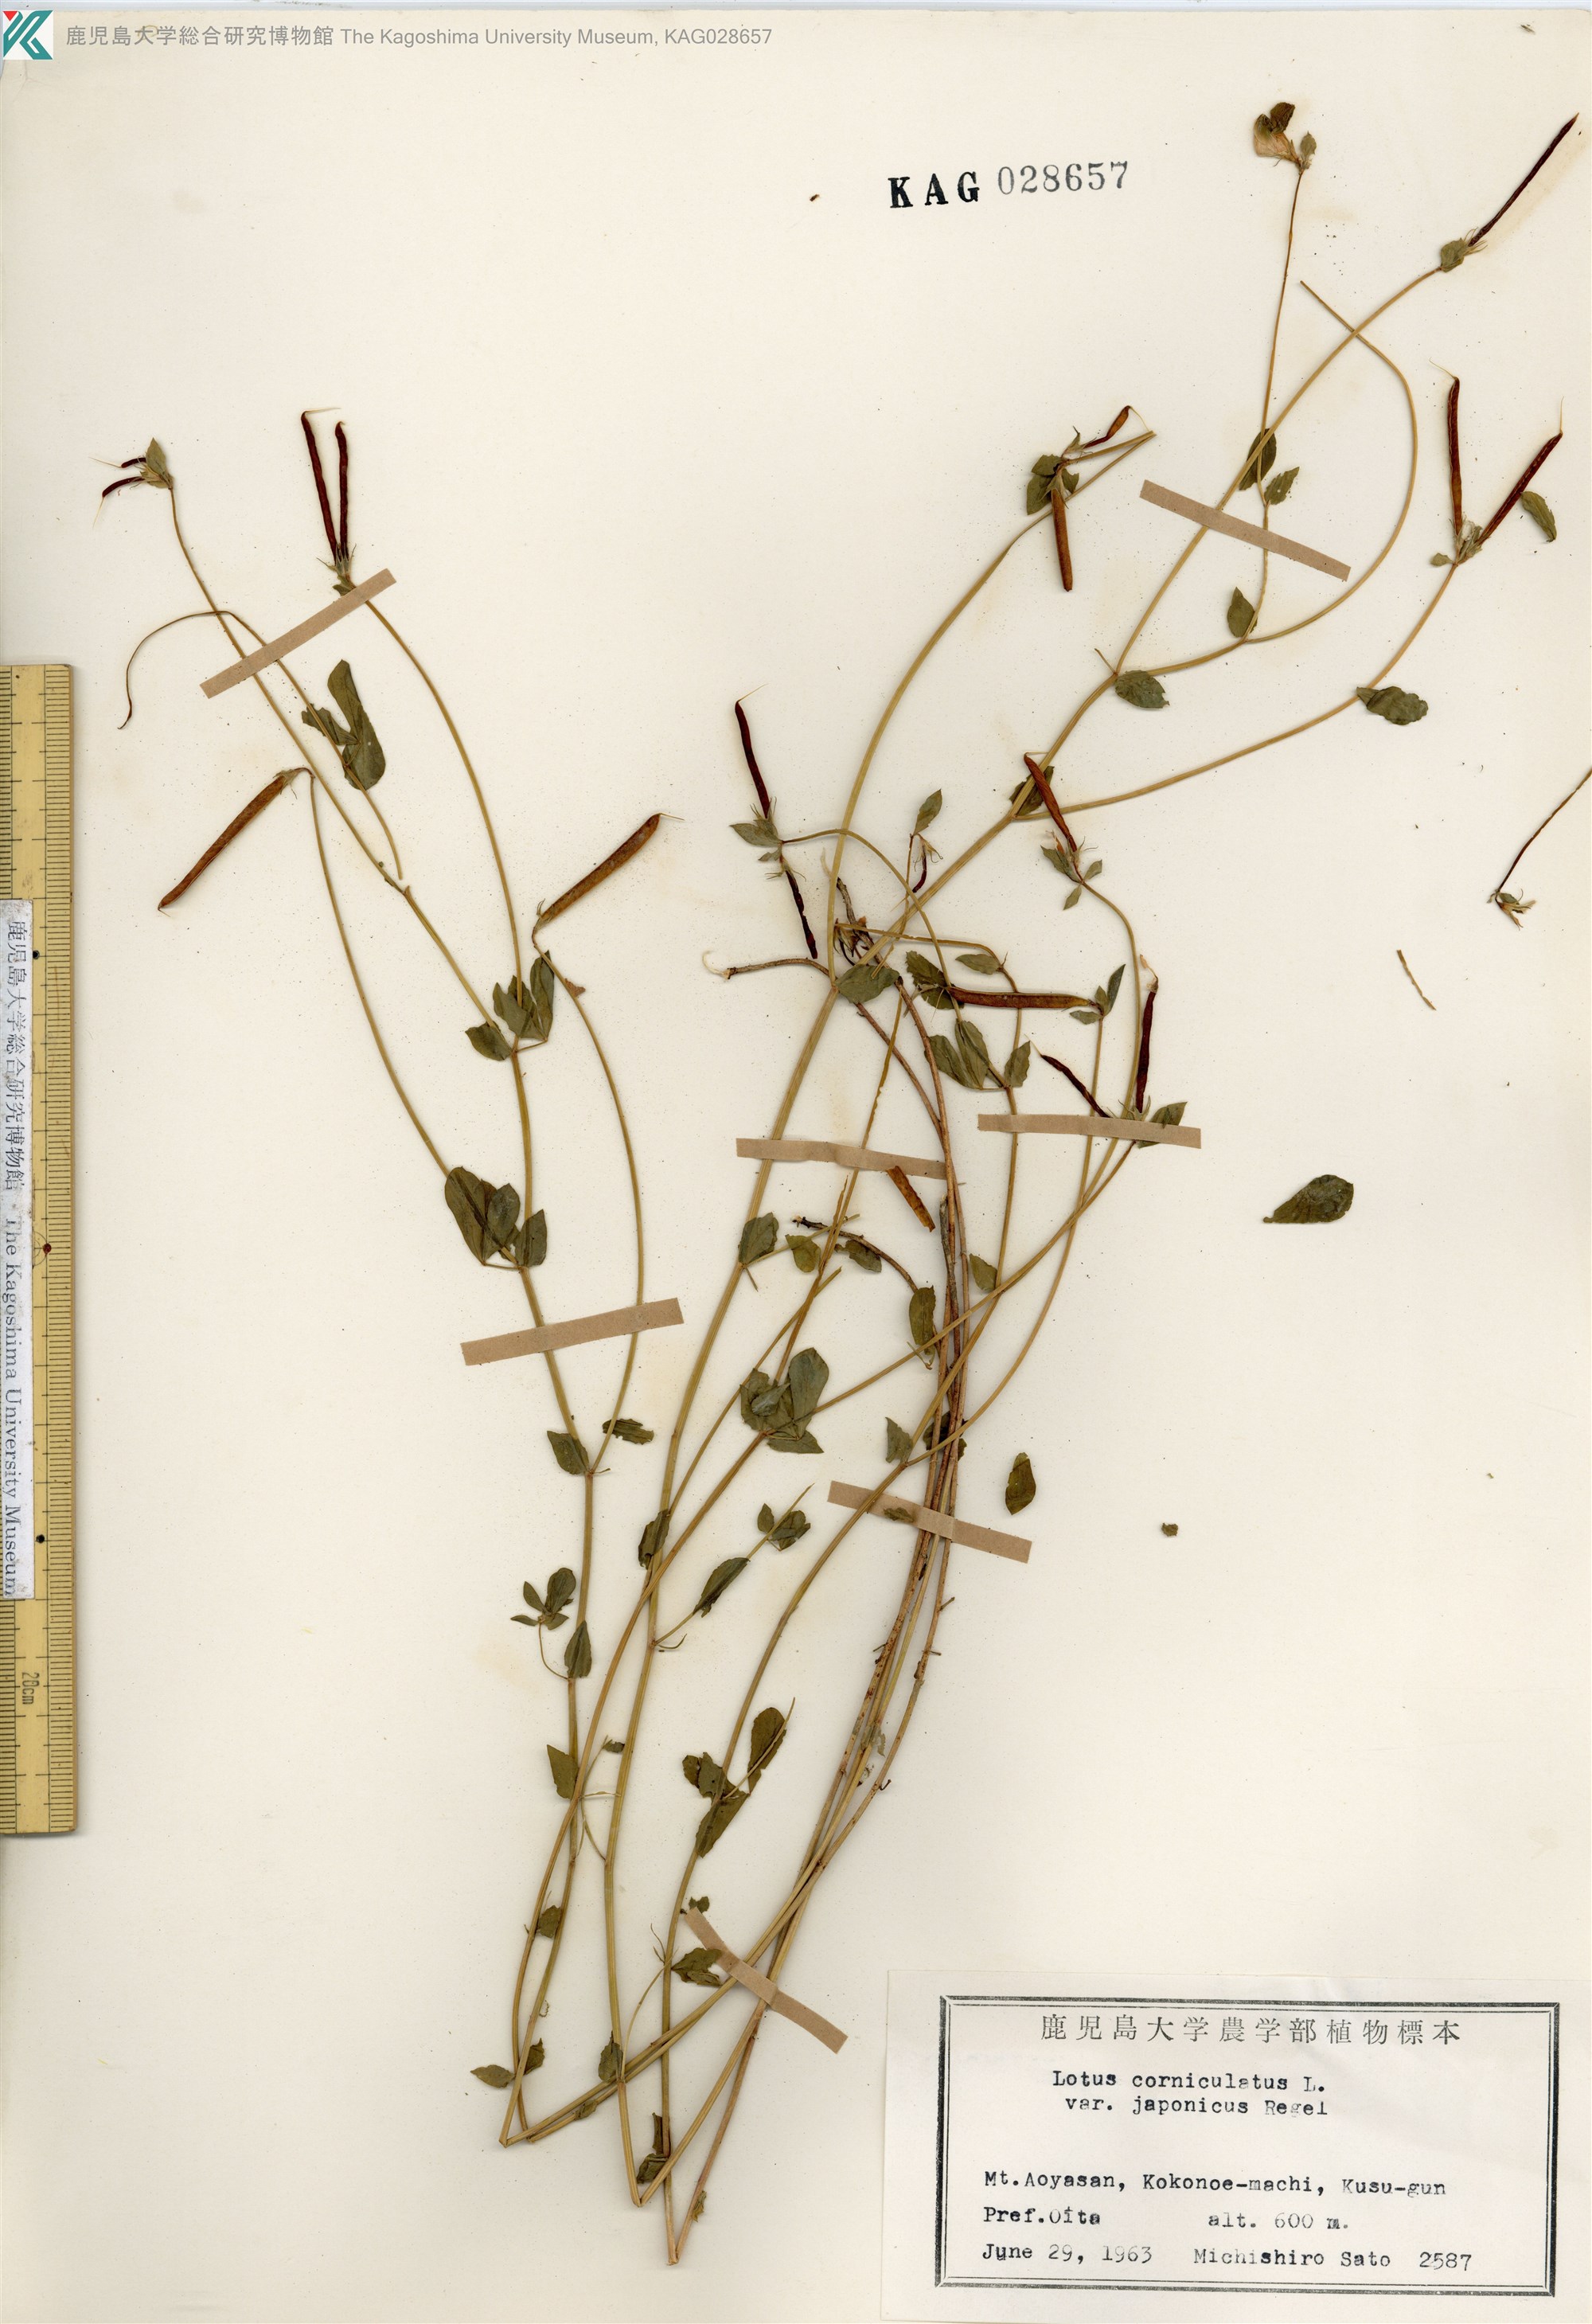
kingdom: Plantae
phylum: Tracheophyta
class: Magnoliopsida
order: Fabales
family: Fabaceae
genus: Lotus
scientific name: Lotus japonicus
